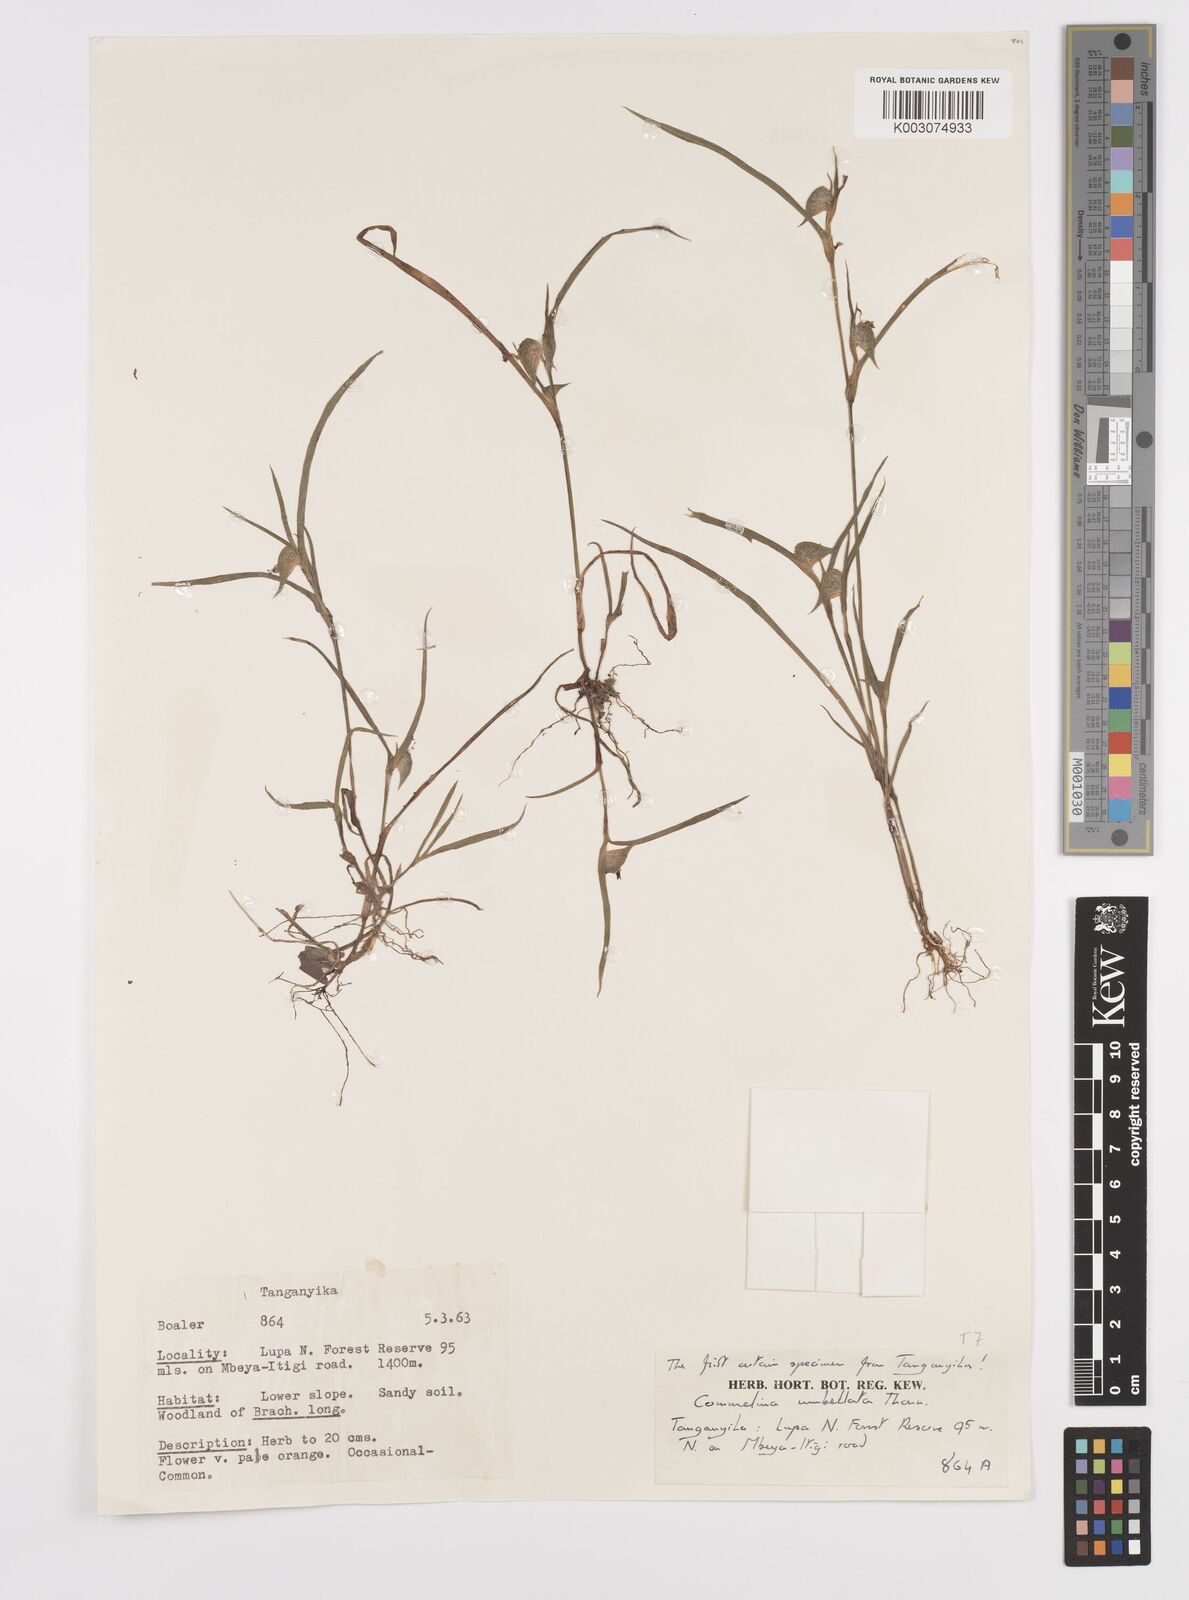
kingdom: Plantae
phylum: Tracheophyta
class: Liliopsida
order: Commelinales
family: Commelinaceae
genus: Commelina
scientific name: Commelina nigritana
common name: African dayflower
